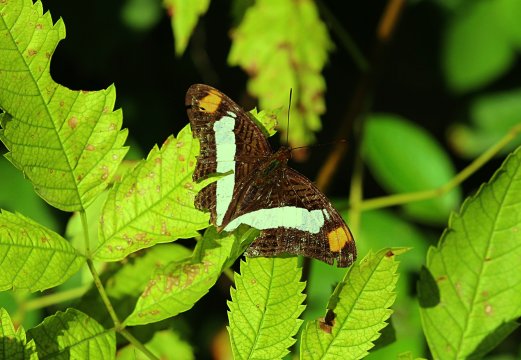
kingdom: Animalia
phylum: Arthropoda
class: Insecta
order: Lepidoptera
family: Nymphalidae
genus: Limenitis
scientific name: Limenitis Adelpha basiloides
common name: Spot-celled Sister
